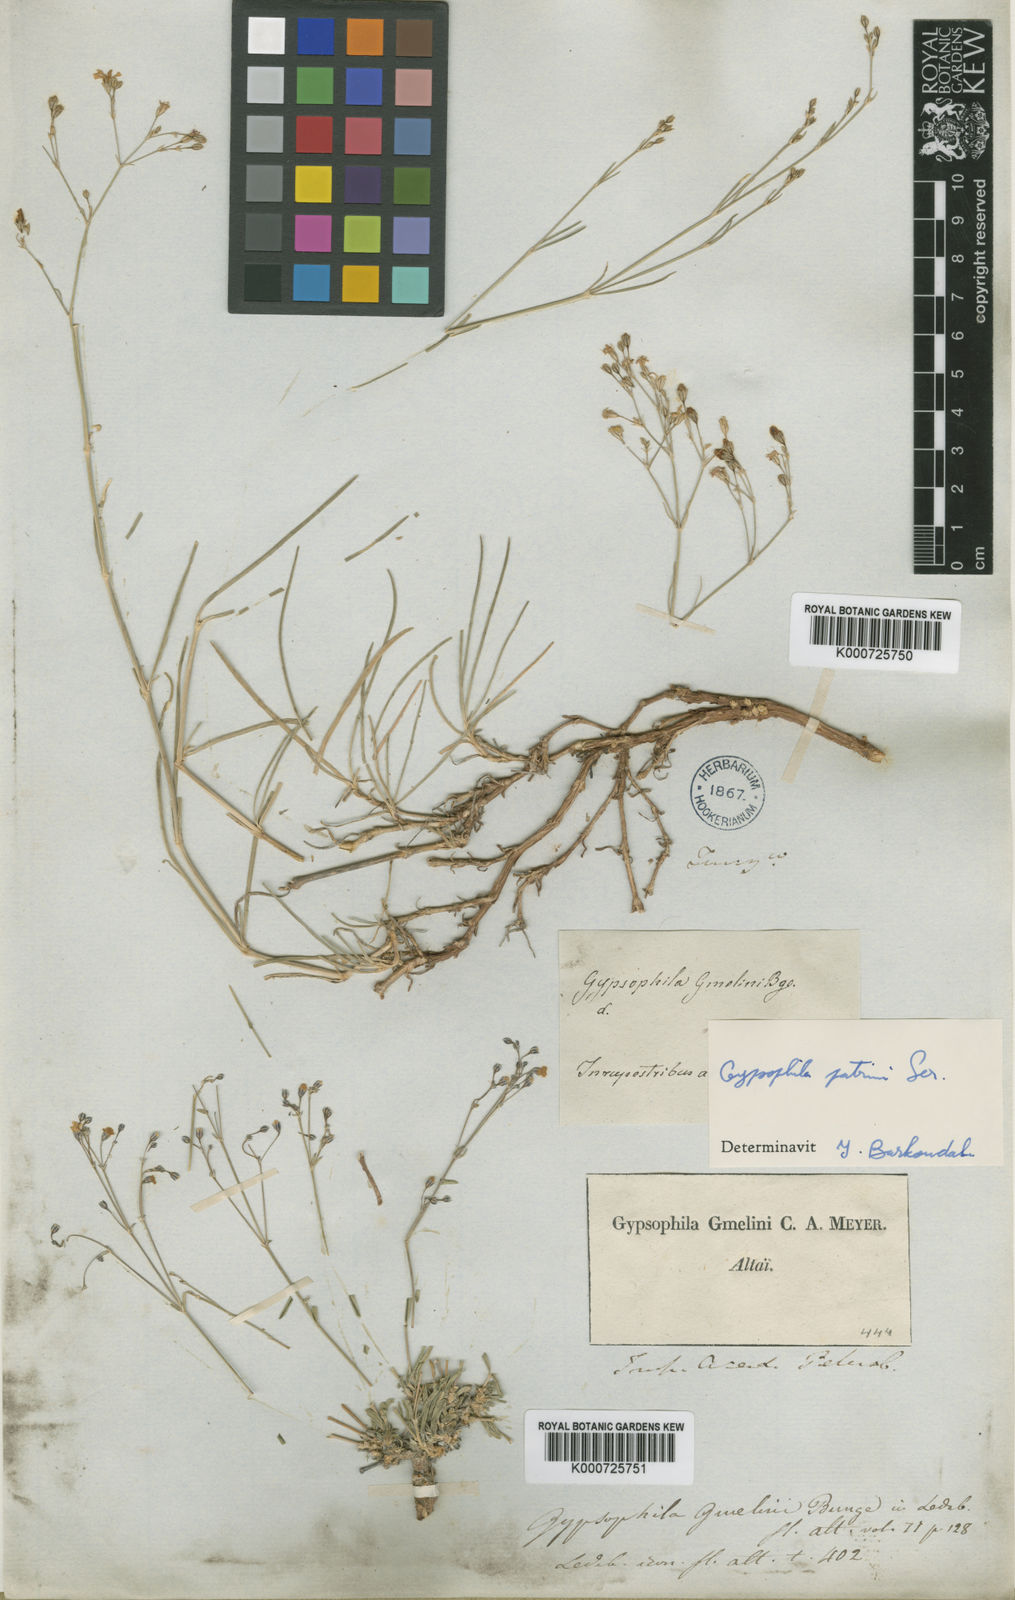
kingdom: Plantae
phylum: Tracheophyta
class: Magnoliopsida
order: Caryophyllales
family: Caryophyllaceae
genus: Gypsophila
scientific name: Gypsophila patrinii
